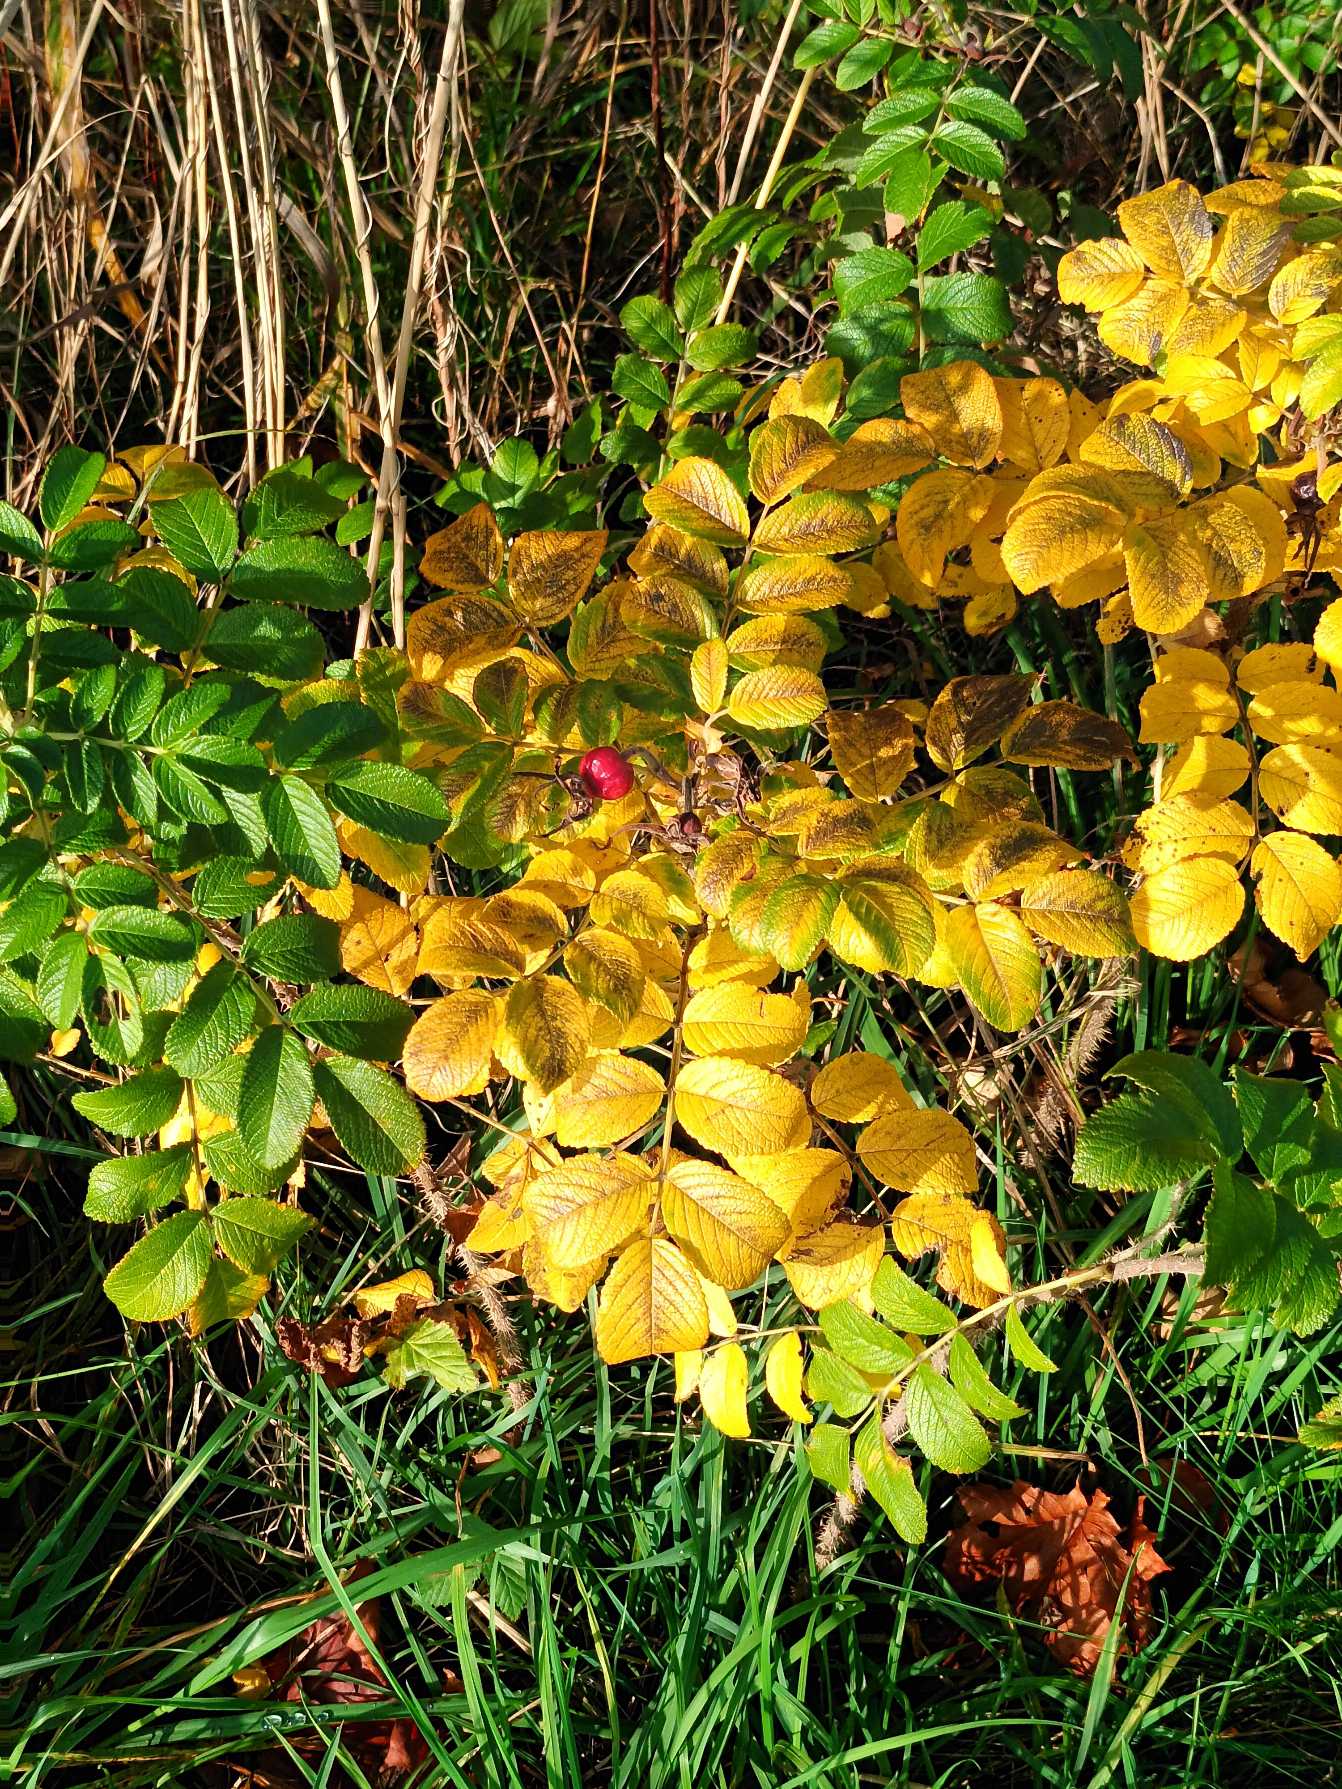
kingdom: Plantae
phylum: Tracheophyta
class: Magnoliopsida
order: Rosales
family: Rosaceae
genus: Rosa
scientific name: Rosa rugosa
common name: Rynket rose
